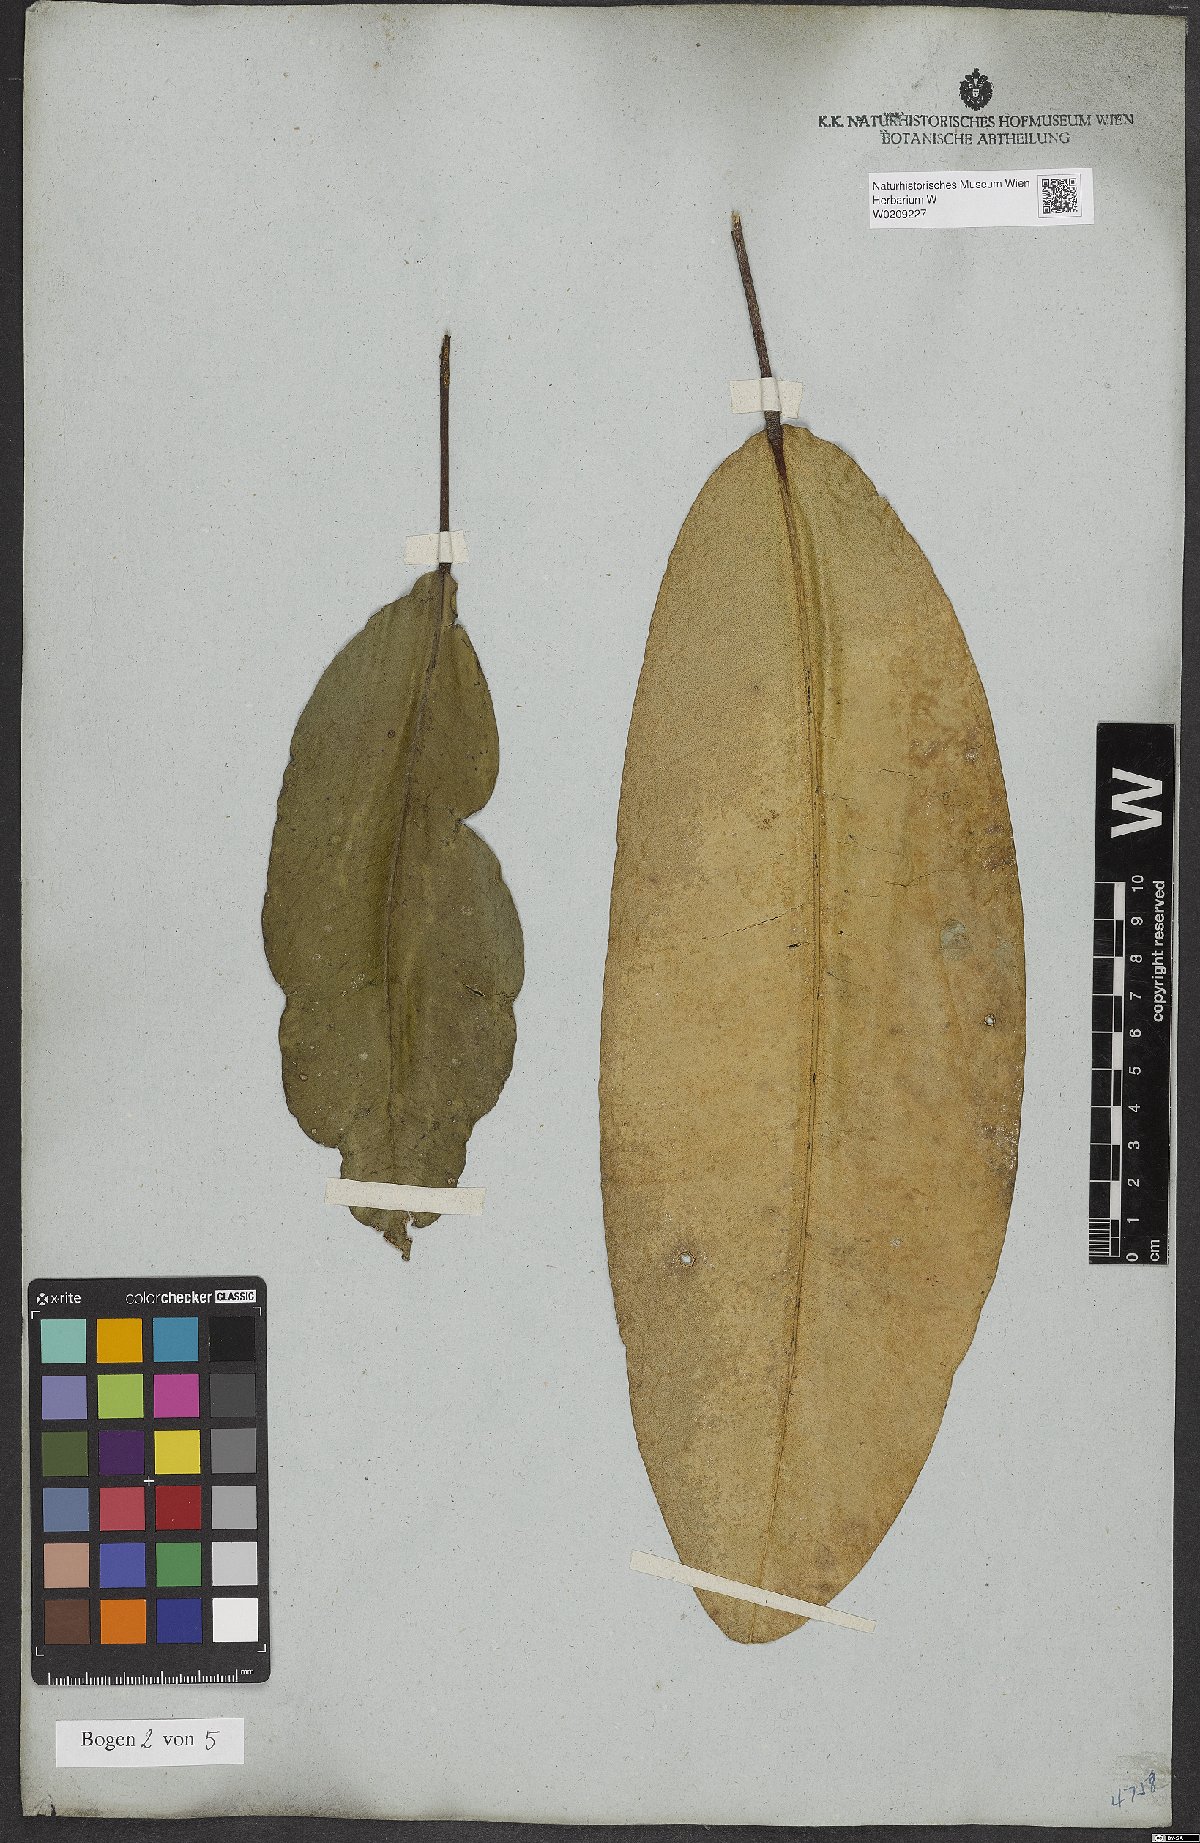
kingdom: Plantae
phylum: Tracheophyta
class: Magnoliopsida
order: Sapindales
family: Rutaceae
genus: Conchocarpus
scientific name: Conchocarpus macrophyllus
